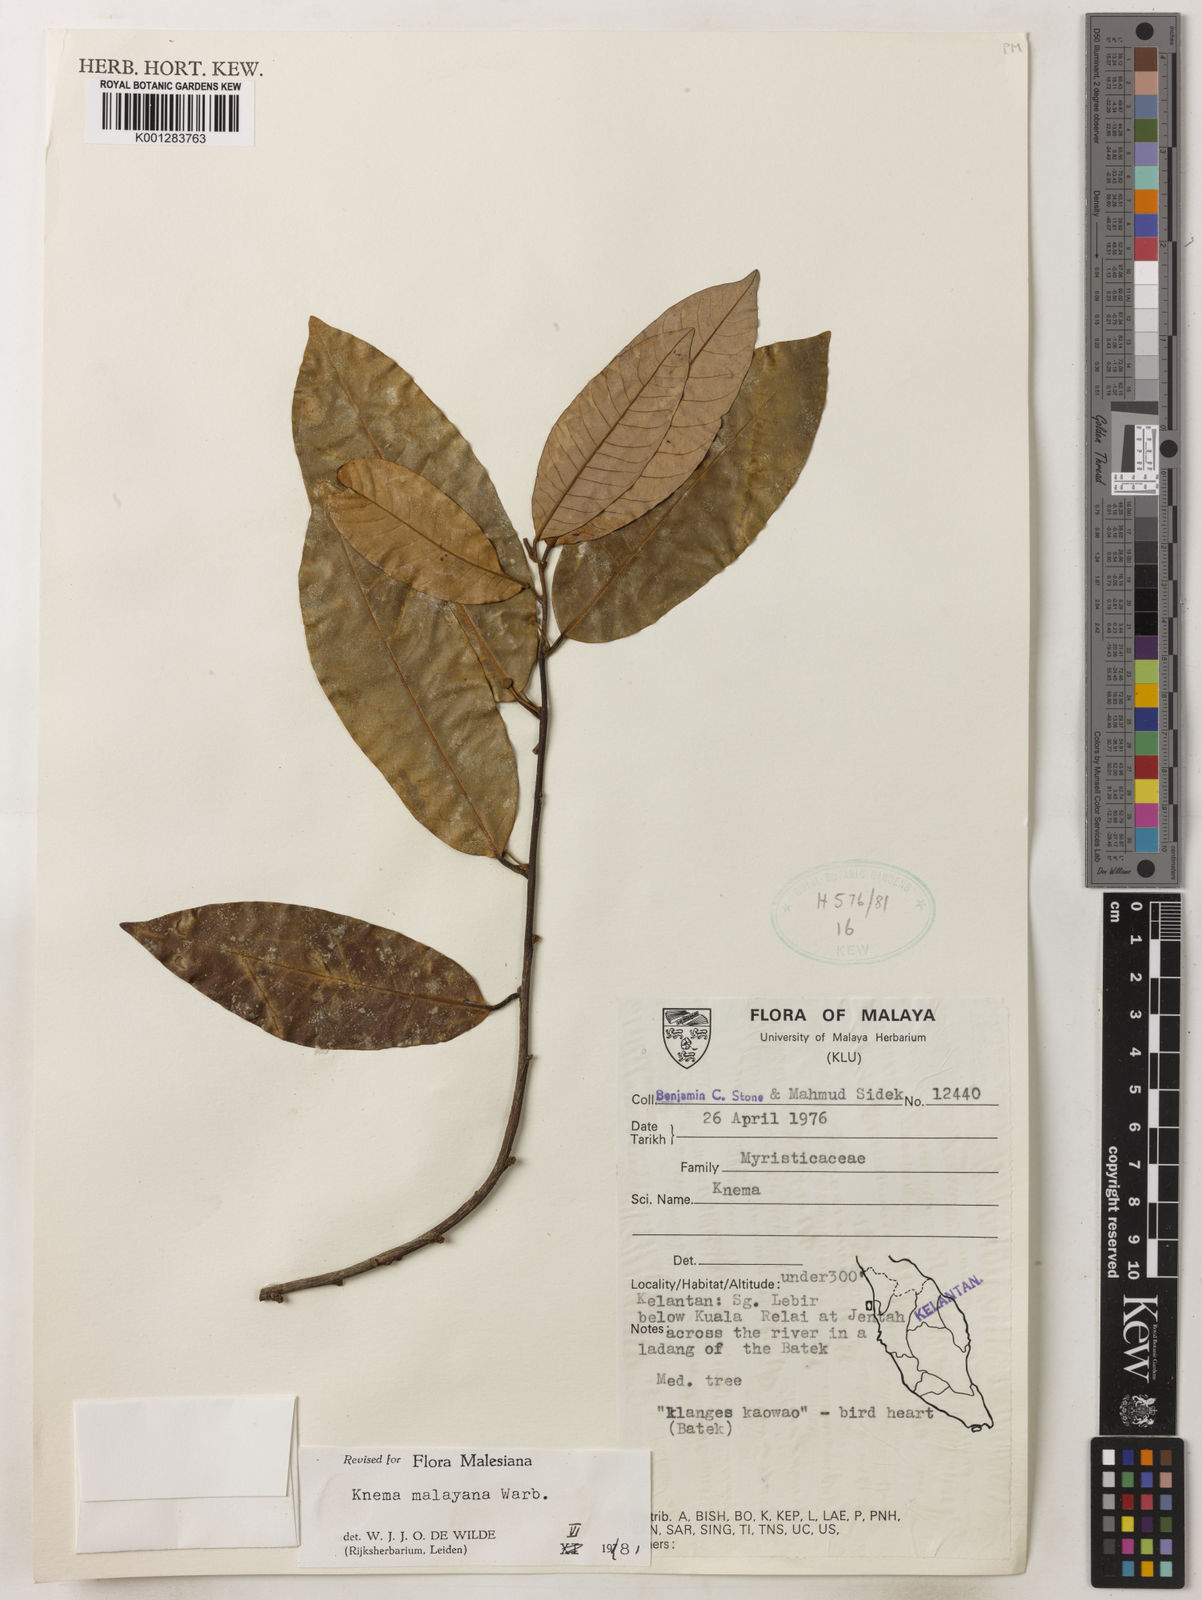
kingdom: Plantae
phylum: Tracheophyta
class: Magnoliopsida
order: Magnoliales
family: Myristicaceae
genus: Knema
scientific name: Knema malayana
